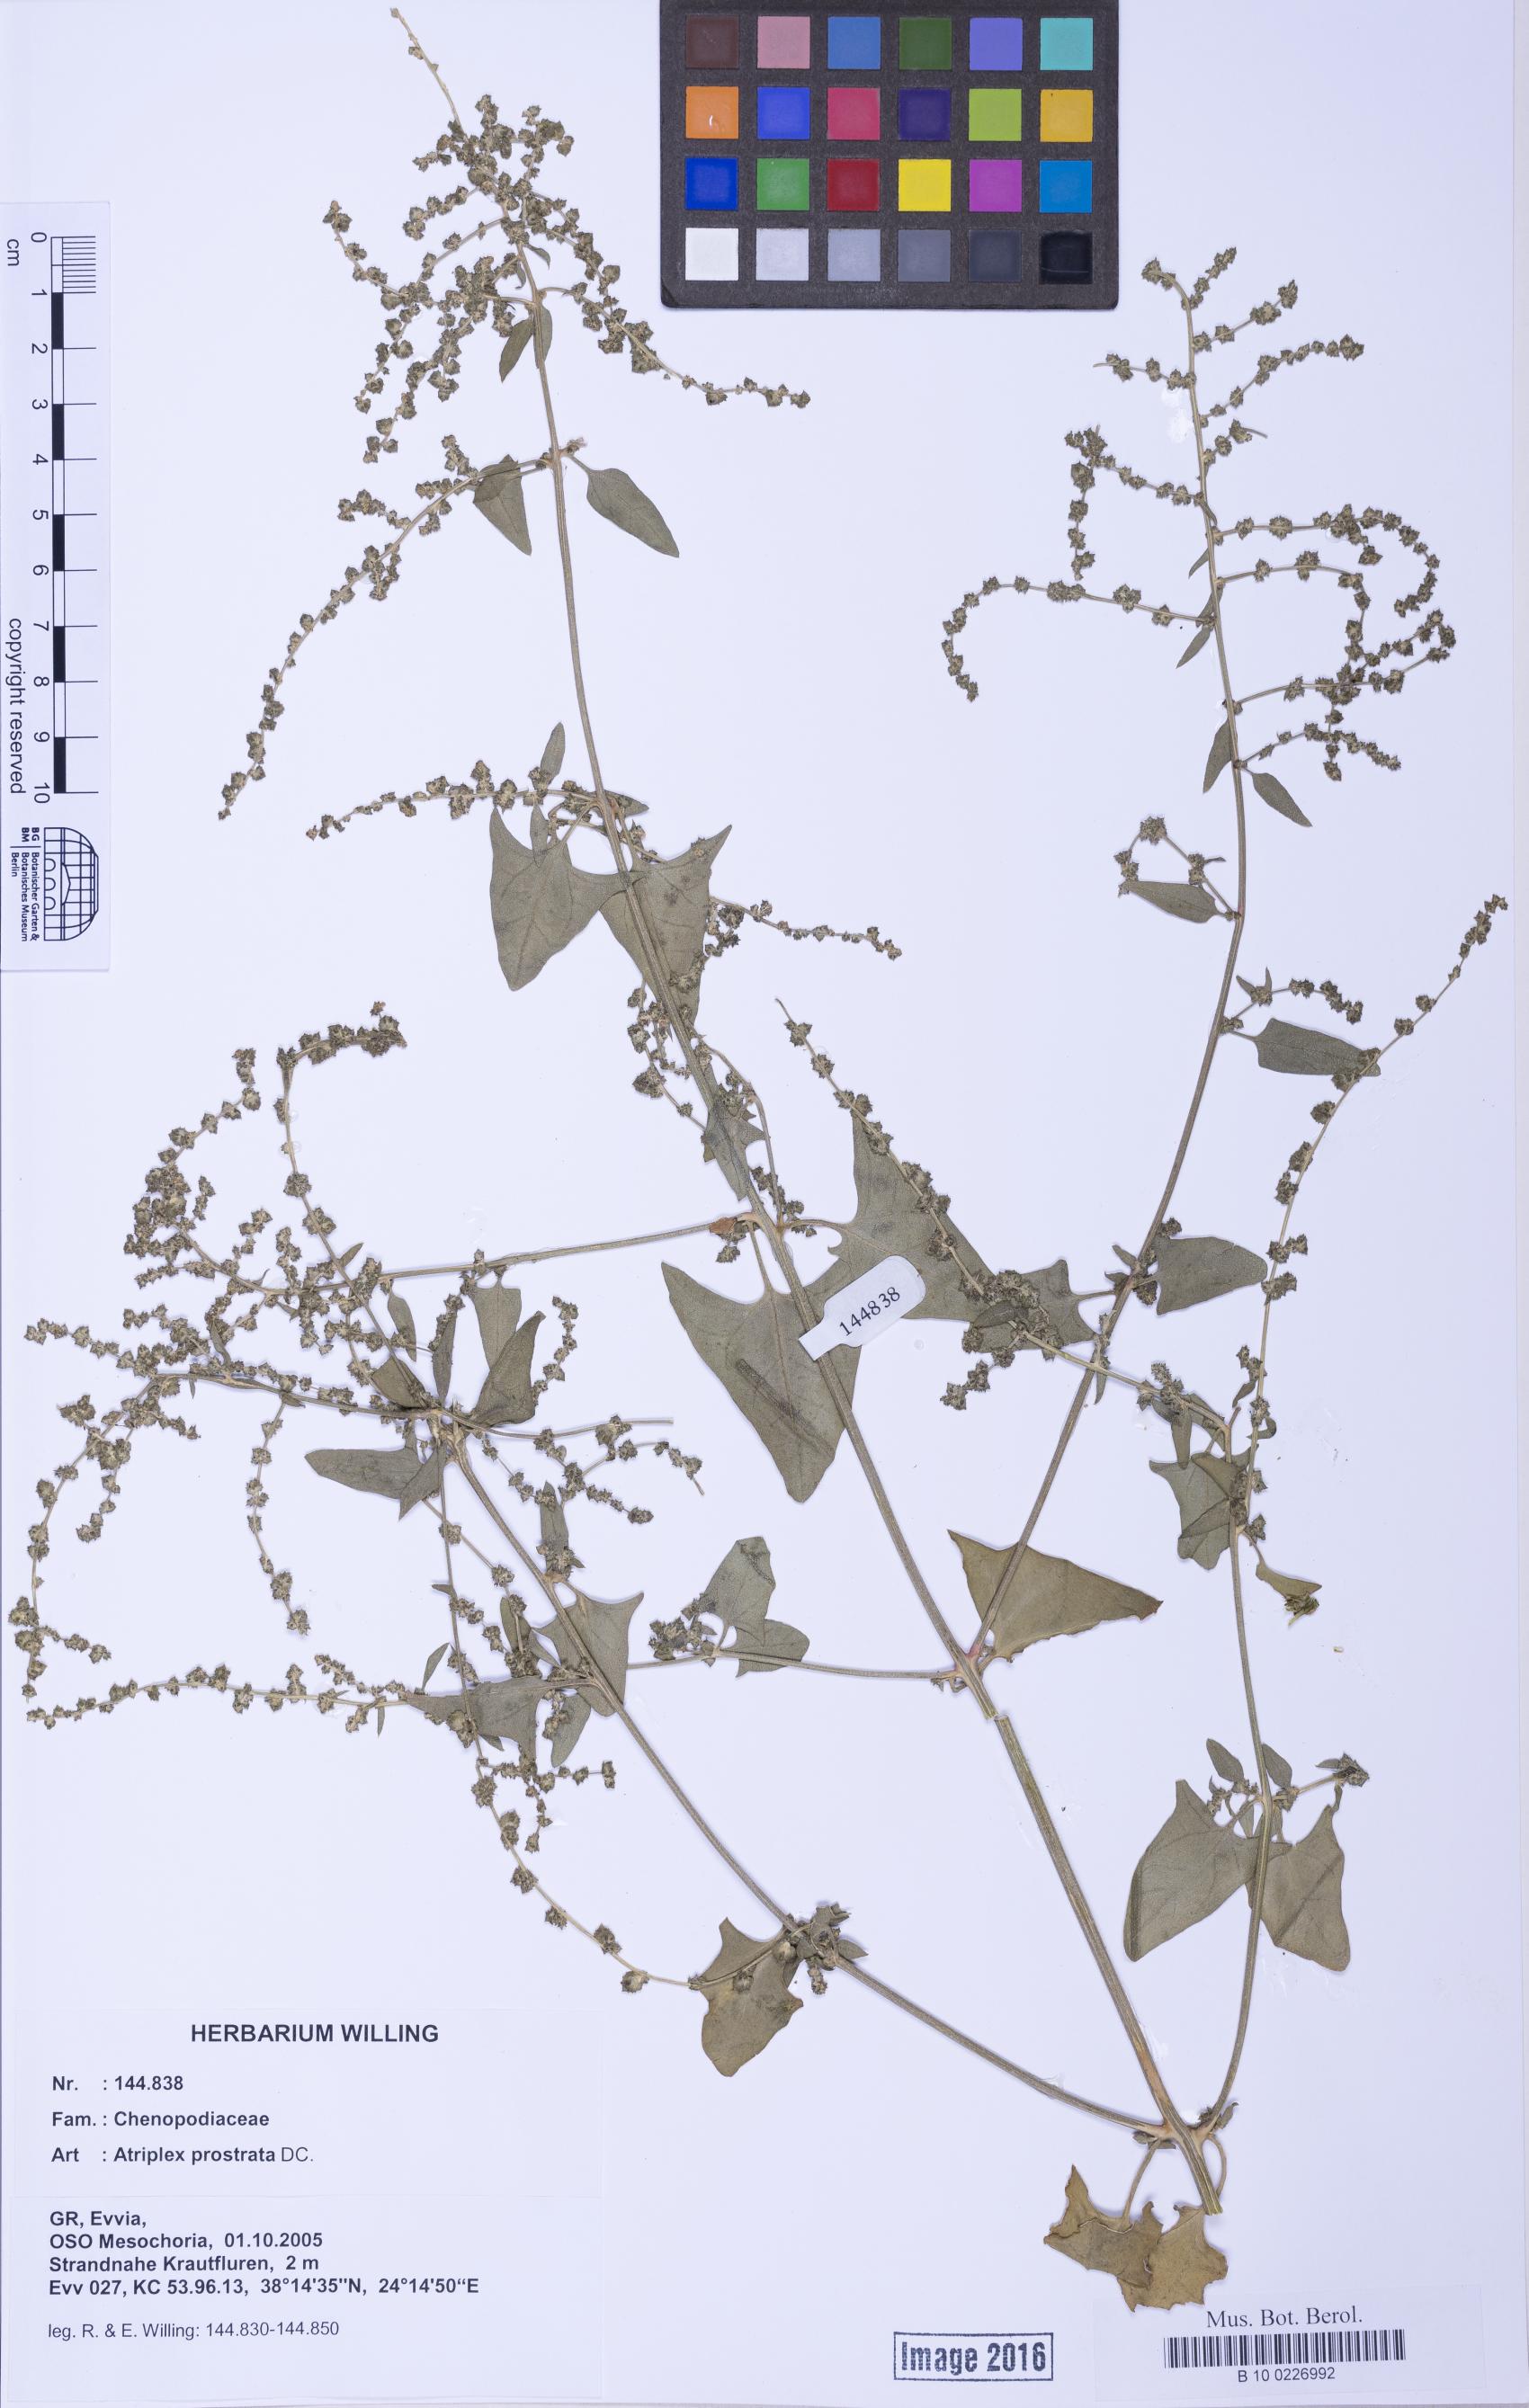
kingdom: Plantae
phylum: Tracheophyta
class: Magnoliopsida
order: Caryophyllales
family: Amaranthaceae
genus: Atriplex
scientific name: Atriplex prostrata
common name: Spear-leaved orache
